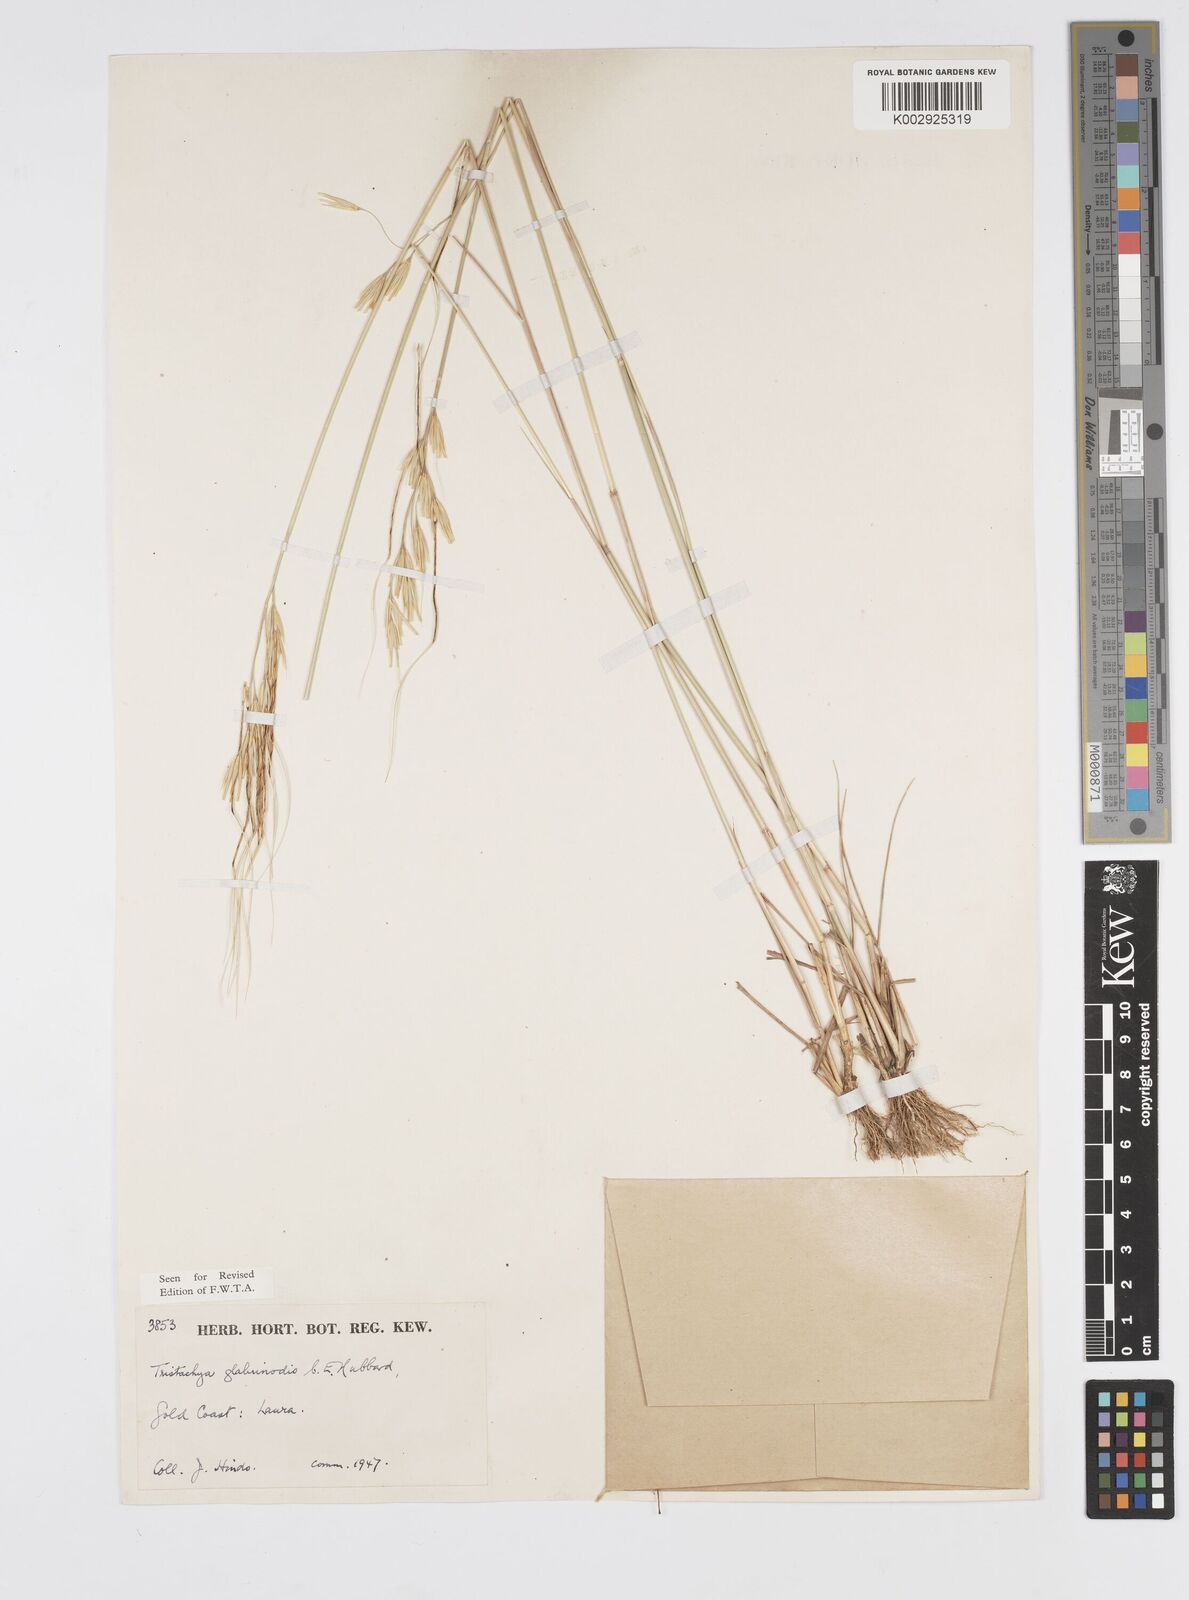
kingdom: Plantae
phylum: Tracheophyta
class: Liliopsida
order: Poales
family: Poaceae
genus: Loudetiopsis
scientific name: Loudetiopsis kerstingii
